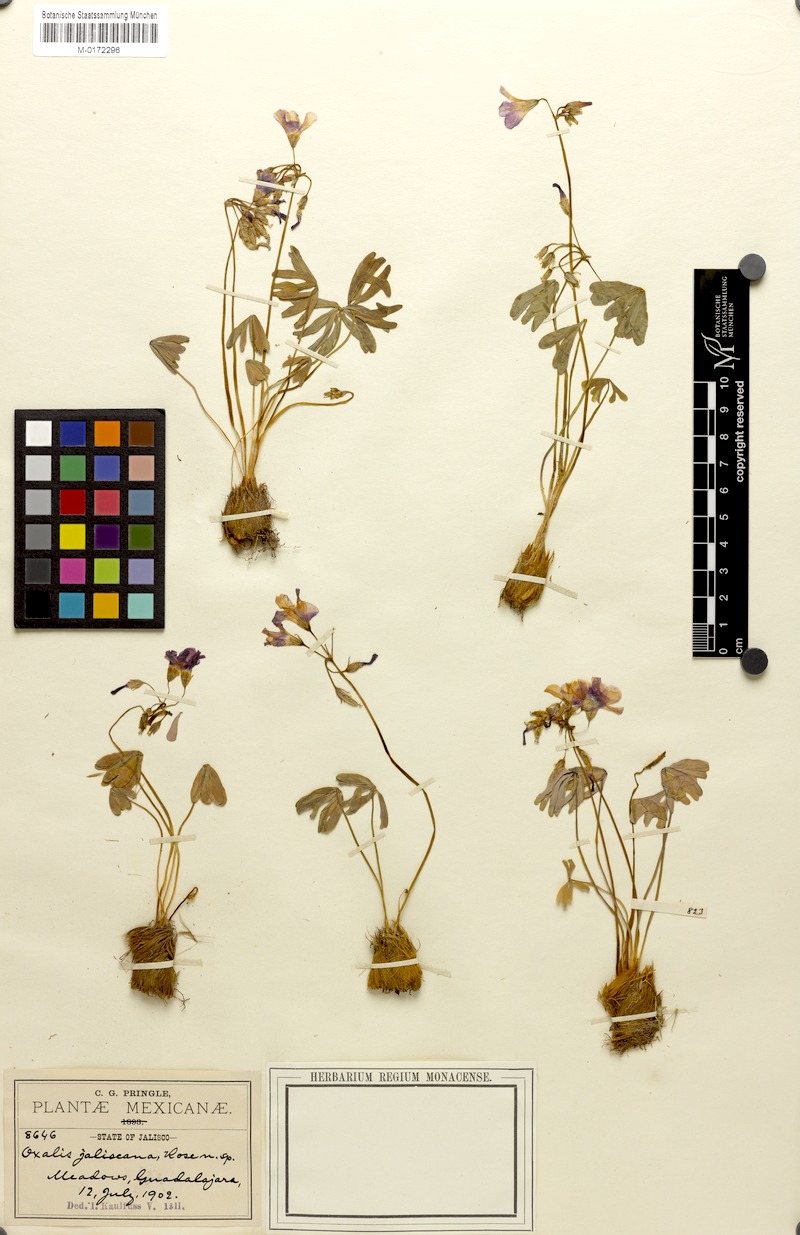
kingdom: Plantae
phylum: Tracheophyta
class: Magnoliopsida
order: Oxalidales
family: Oxalidaceae
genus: Oxalis
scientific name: Oxalis decaphylla
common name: Ten-leaved pink-sorrel
